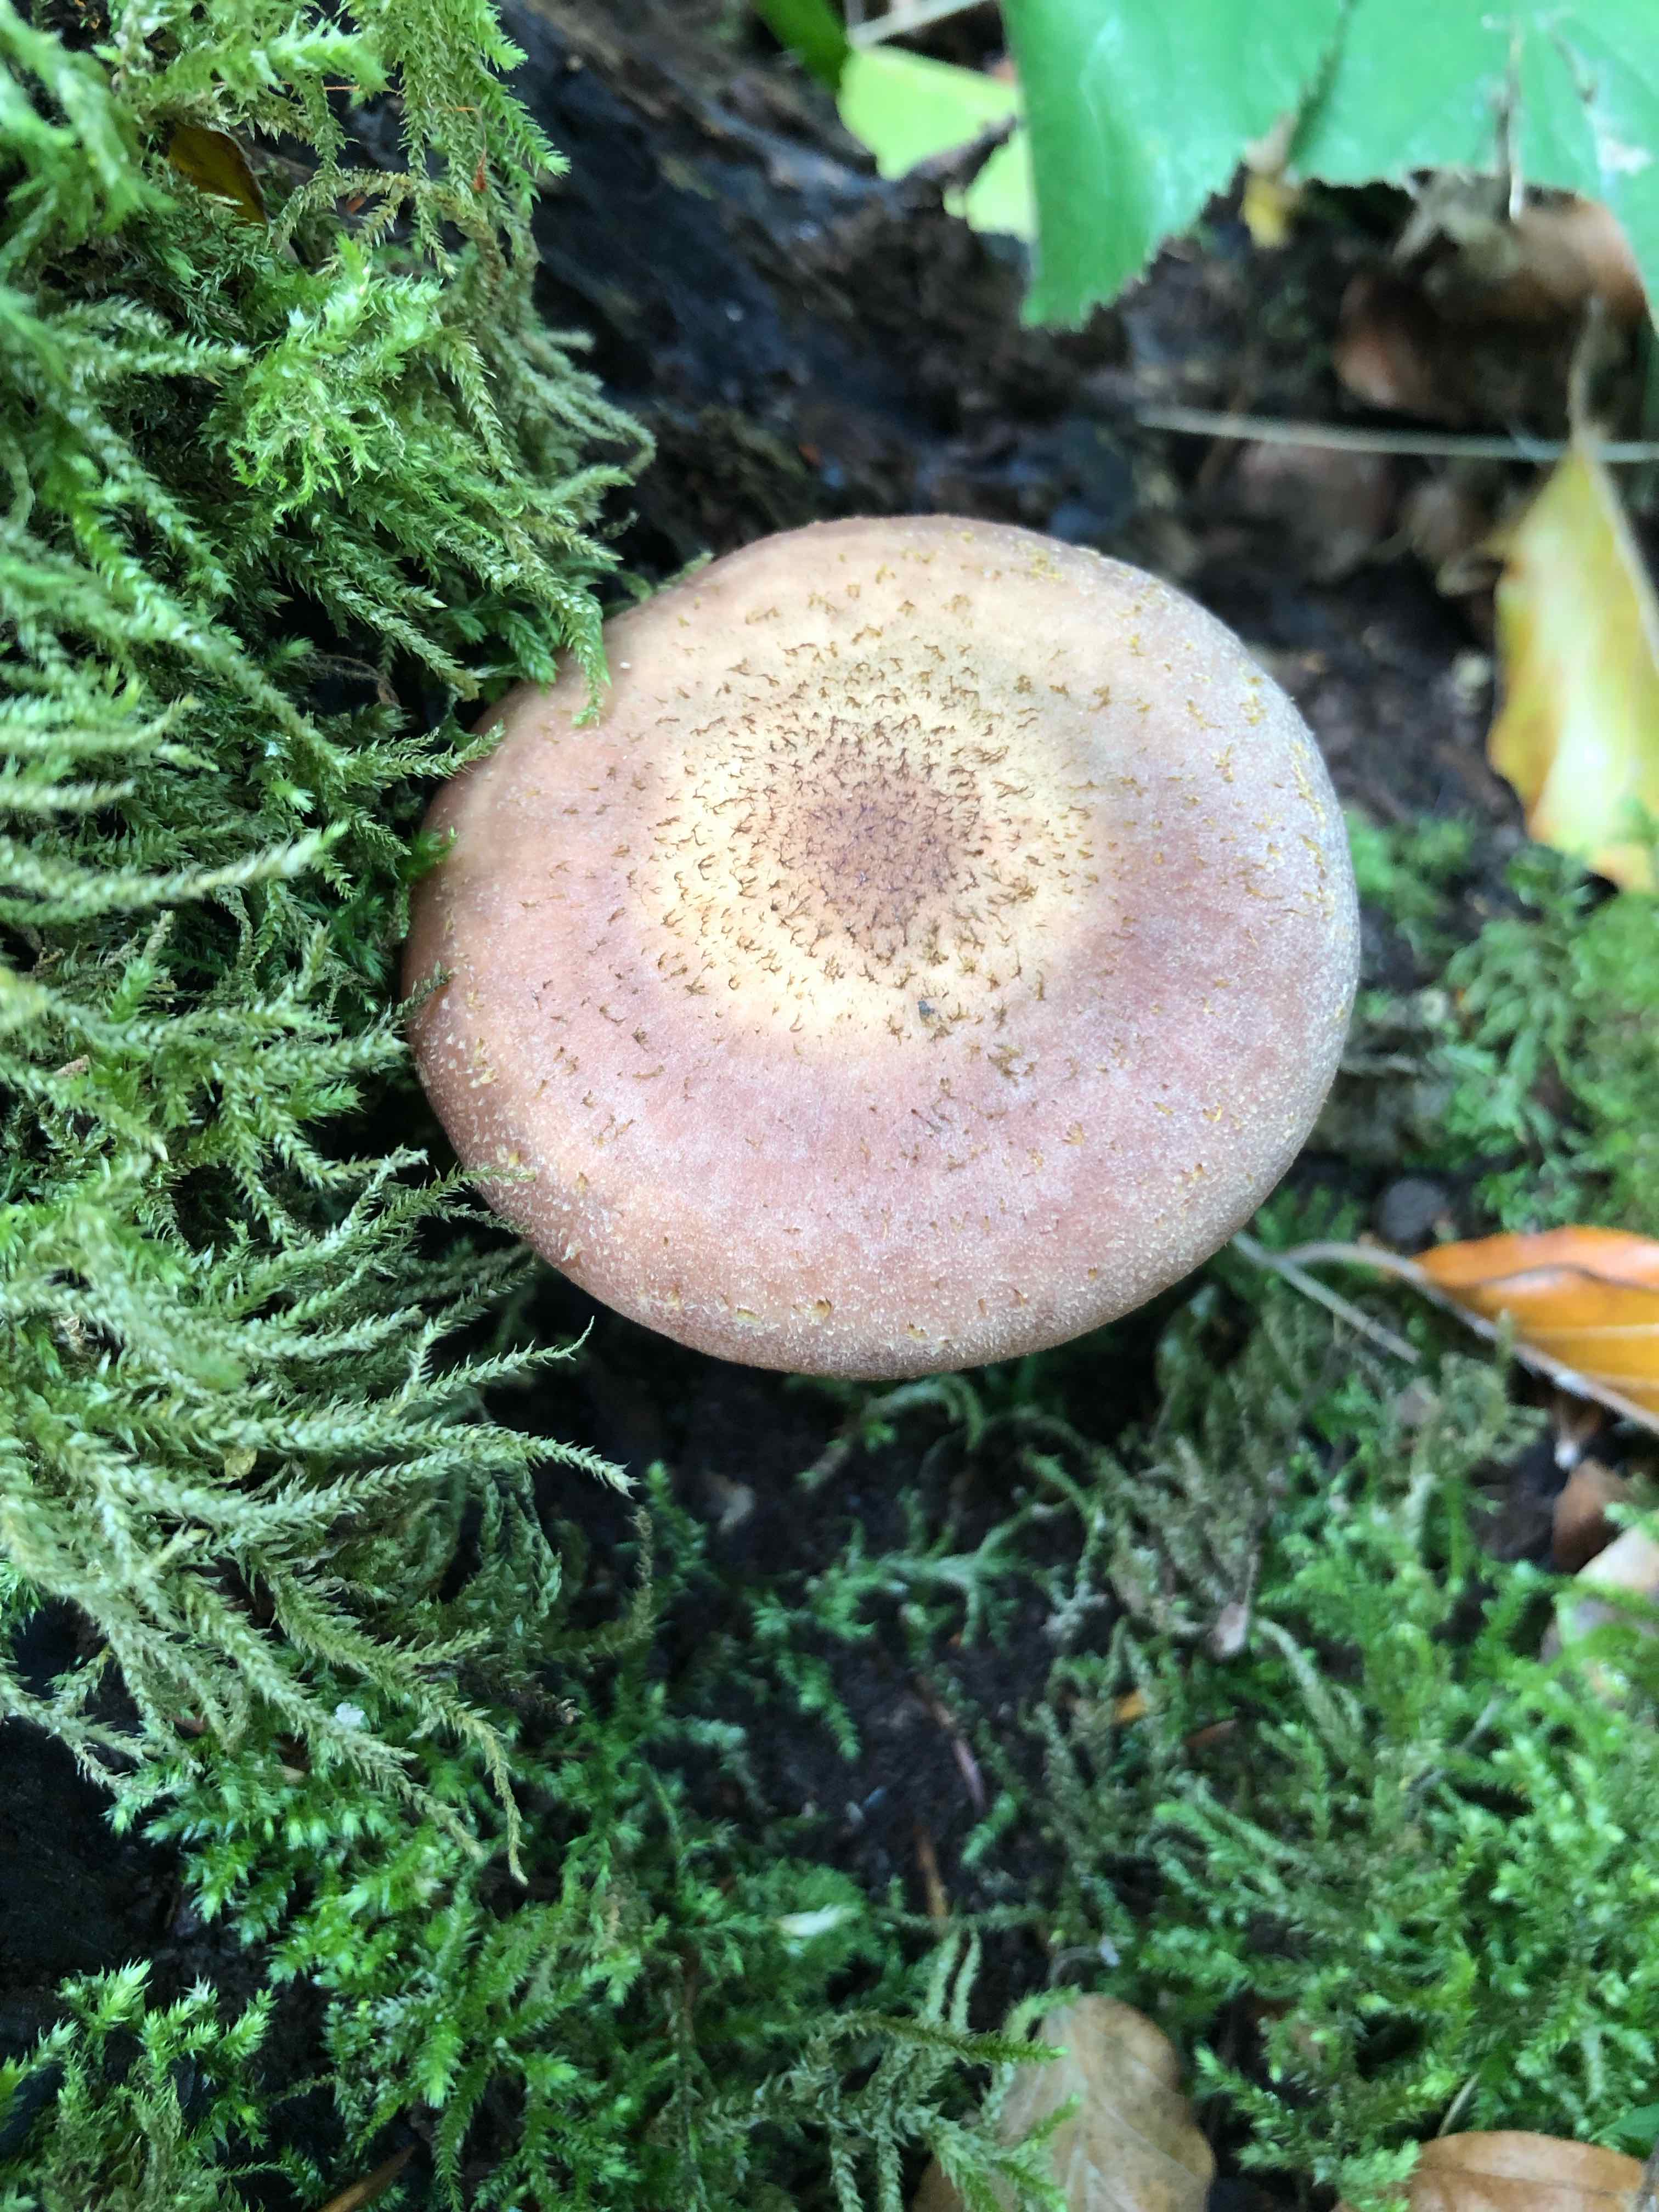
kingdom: Fungi
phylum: Basidiomycota
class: Agaricomycetes
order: Agaricales
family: Physalacriaceae
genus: Armillaria
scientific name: Armillaria lutea
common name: køllestokket honningsvamp
